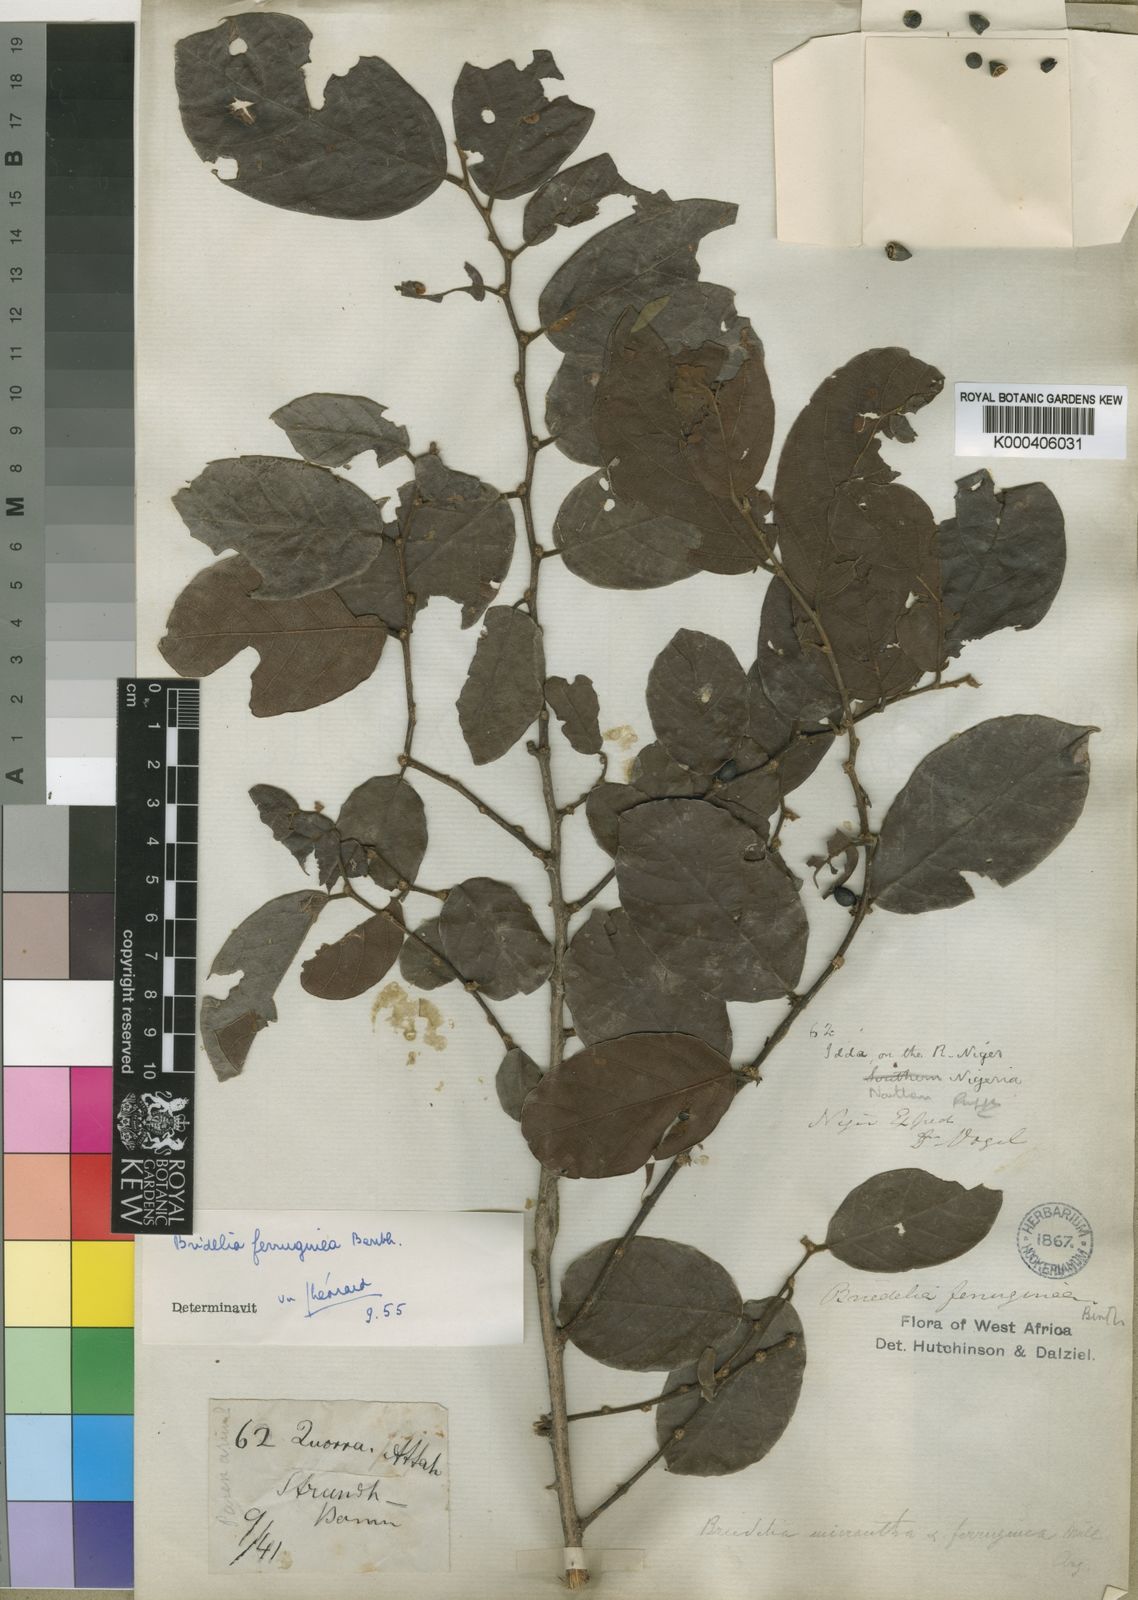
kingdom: Plantae
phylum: Tracheophyta
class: Magnoliopsida
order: Malpighiales
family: Phyllanthaceae
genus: Bridelia
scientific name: Bridelia ferruginea
